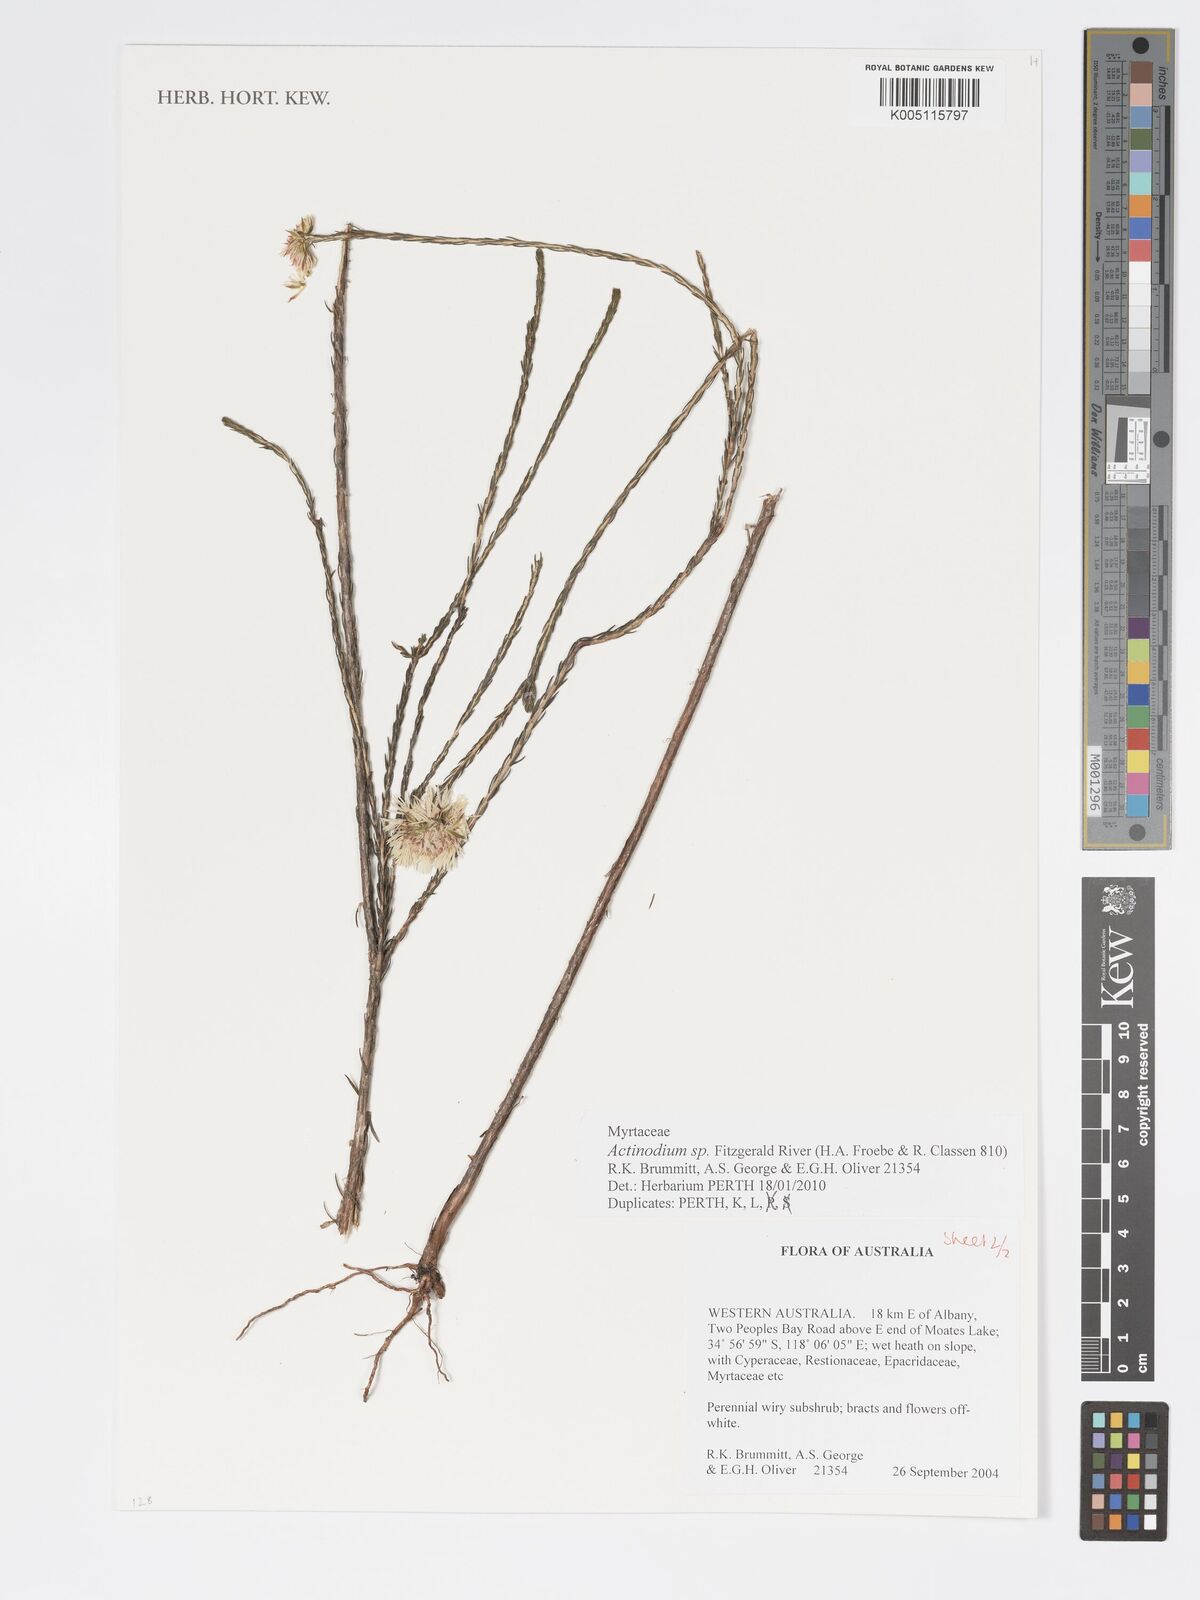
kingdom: Plantae
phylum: Tracheophyta
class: Magnoliopsida
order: Myrtales
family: Myrtaceae
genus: Actinodium
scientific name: Actinodium
